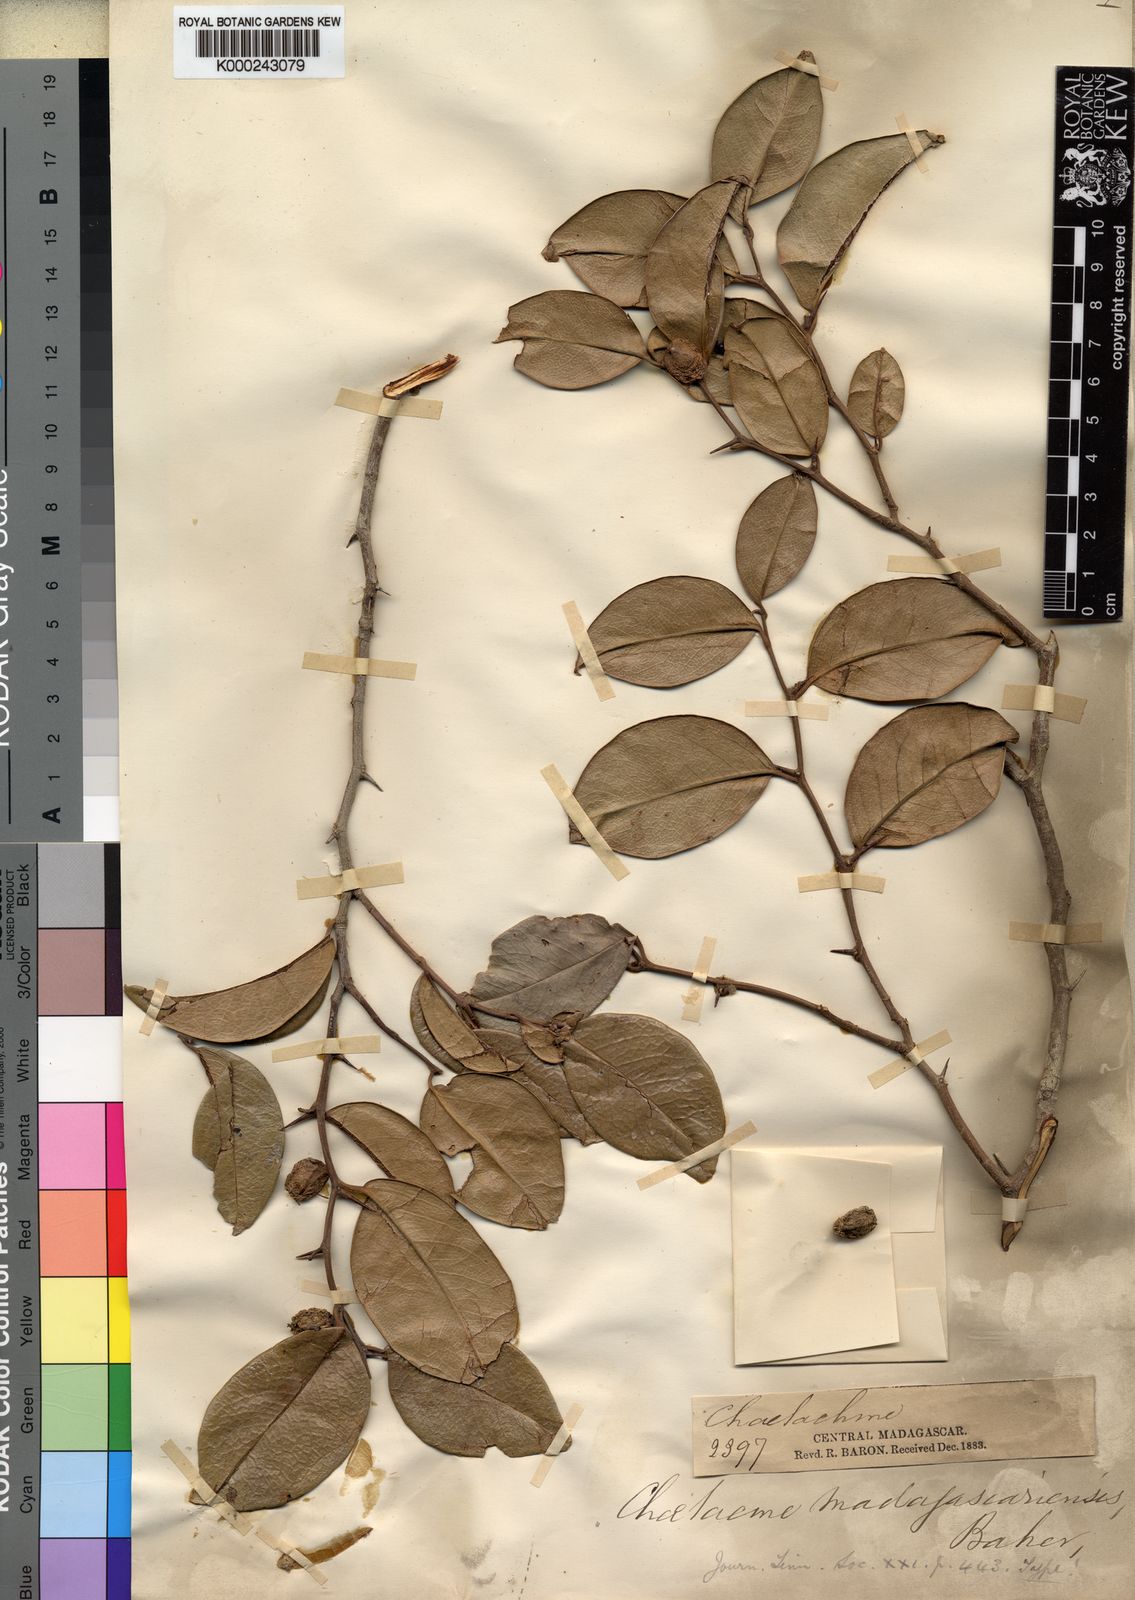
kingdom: Plantae
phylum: Tracheophyta
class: Magnoliopsida
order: Rosales
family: Cannabaceae
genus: Chaetachme
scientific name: Chaetachme aristata
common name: Thorny elm
